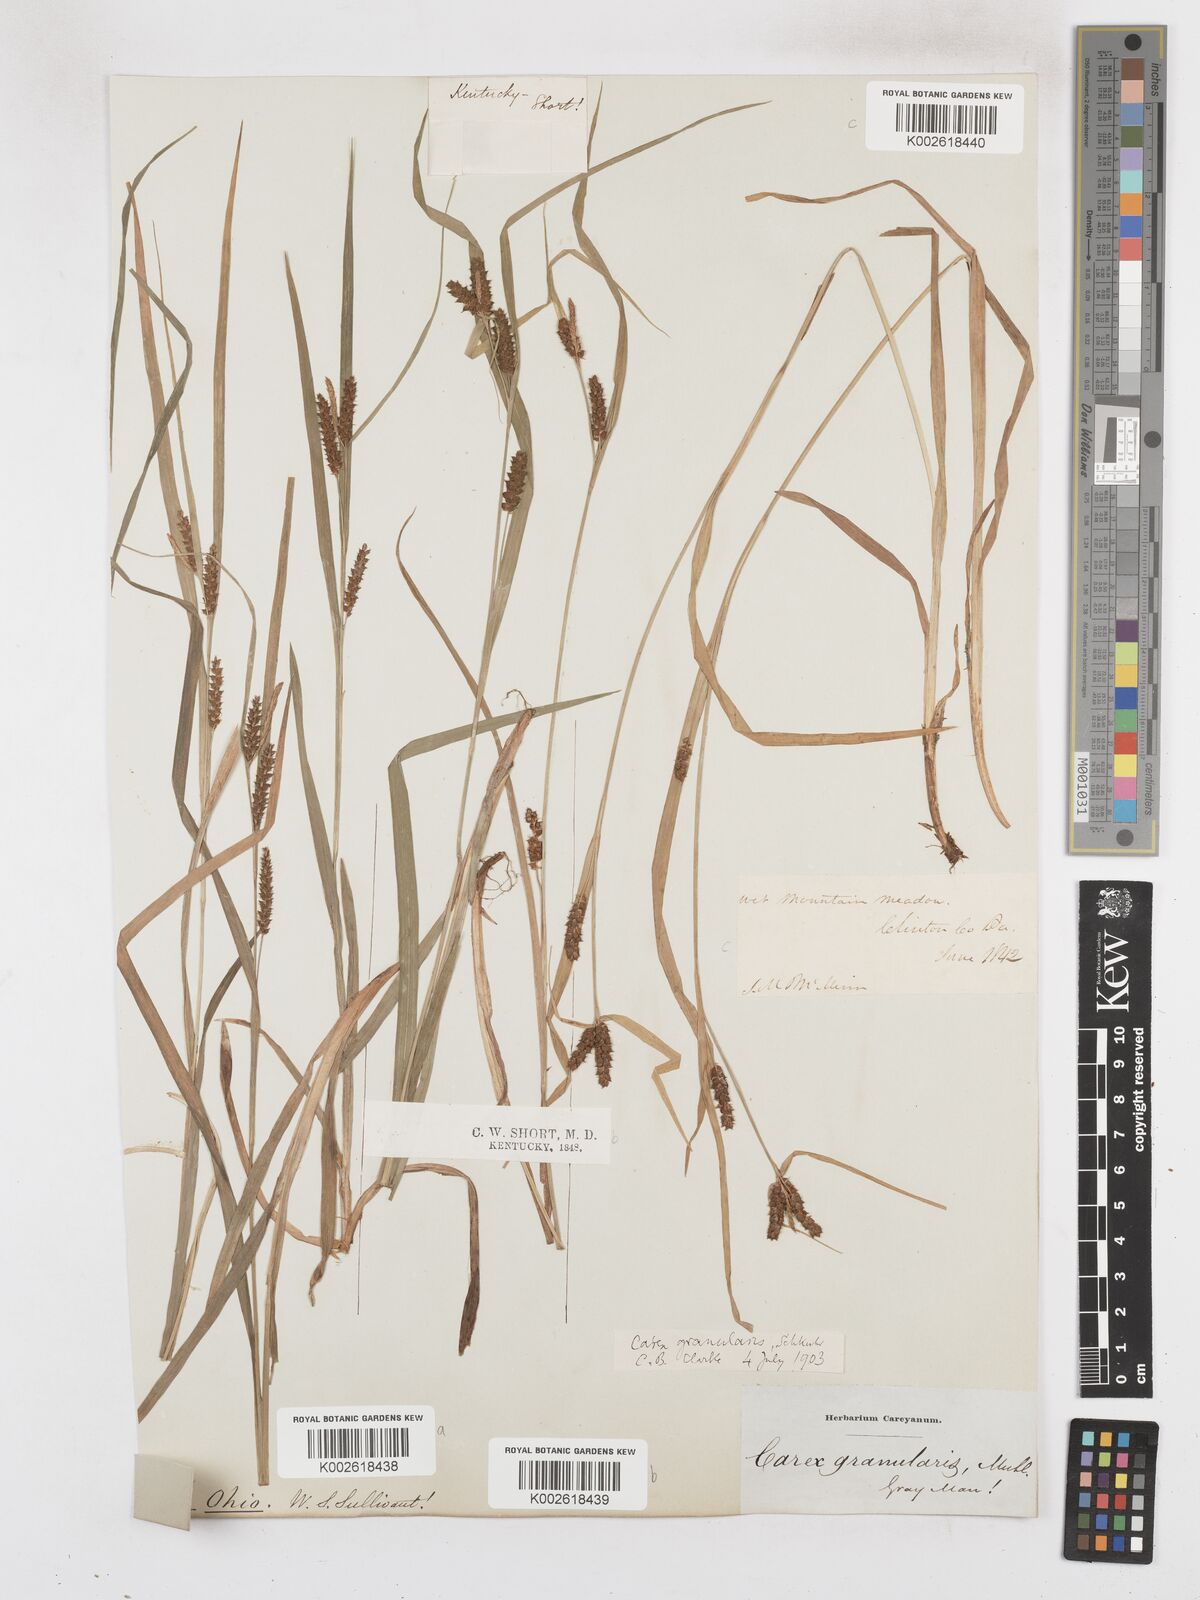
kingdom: Plantae
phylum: Tracheophyta
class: Liliopsida
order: Poales
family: Cyperaceae
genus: Carex
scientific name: Carex livida
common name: Livid sedge
